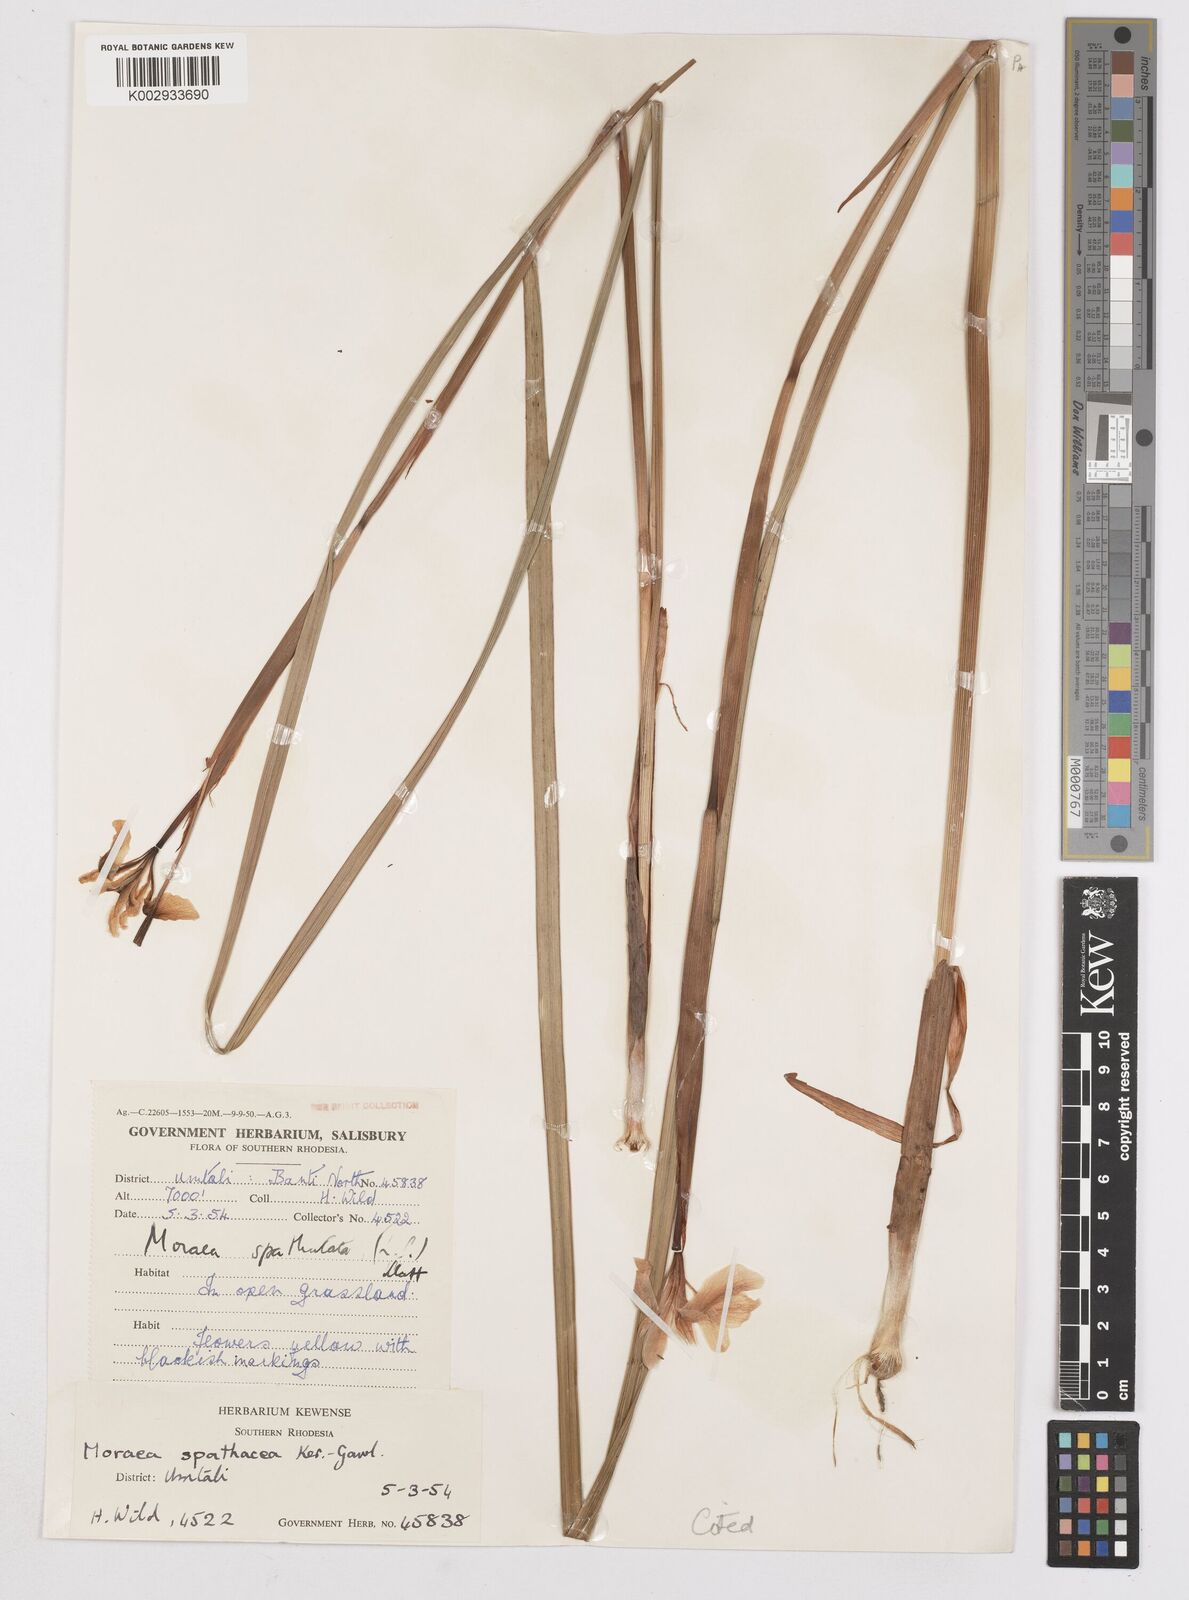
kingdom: Plantae
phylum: Tracheophyta
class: Liliopsida
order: Asparagales
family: Iridaceae
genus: Moraea
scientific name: Moraea spathulata
